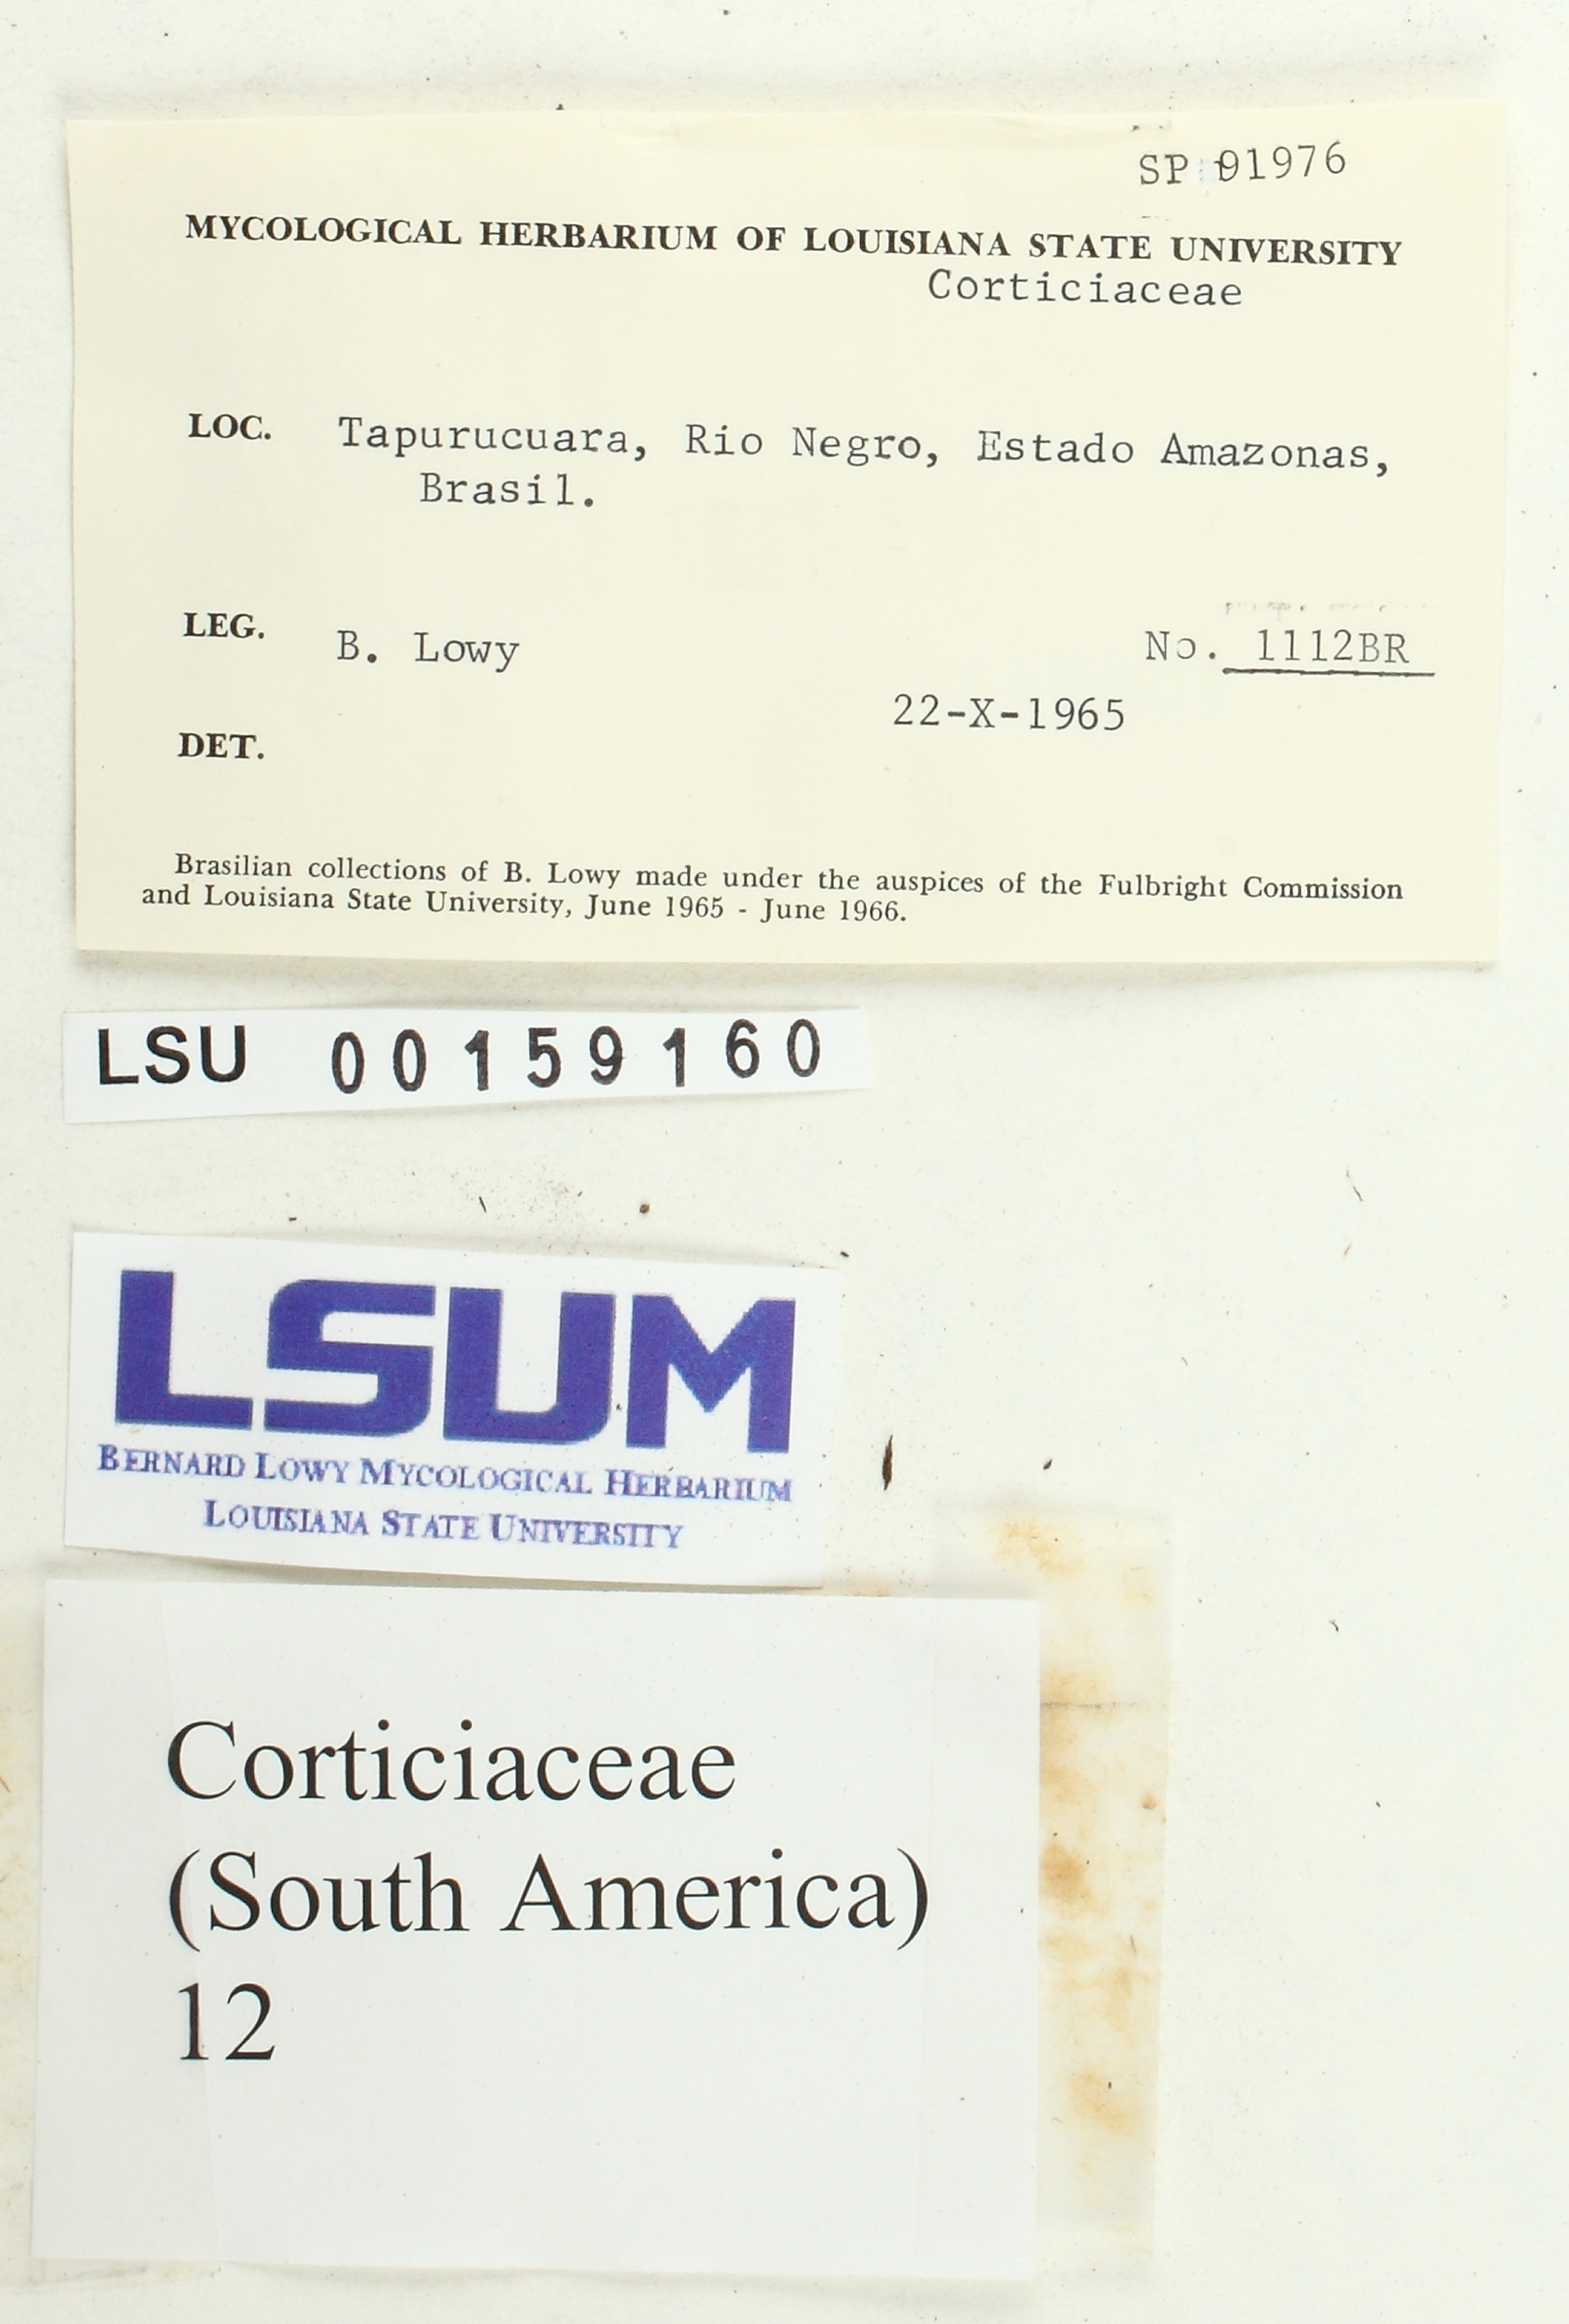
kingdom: Fungi
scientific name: Fungi
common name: Fungi
